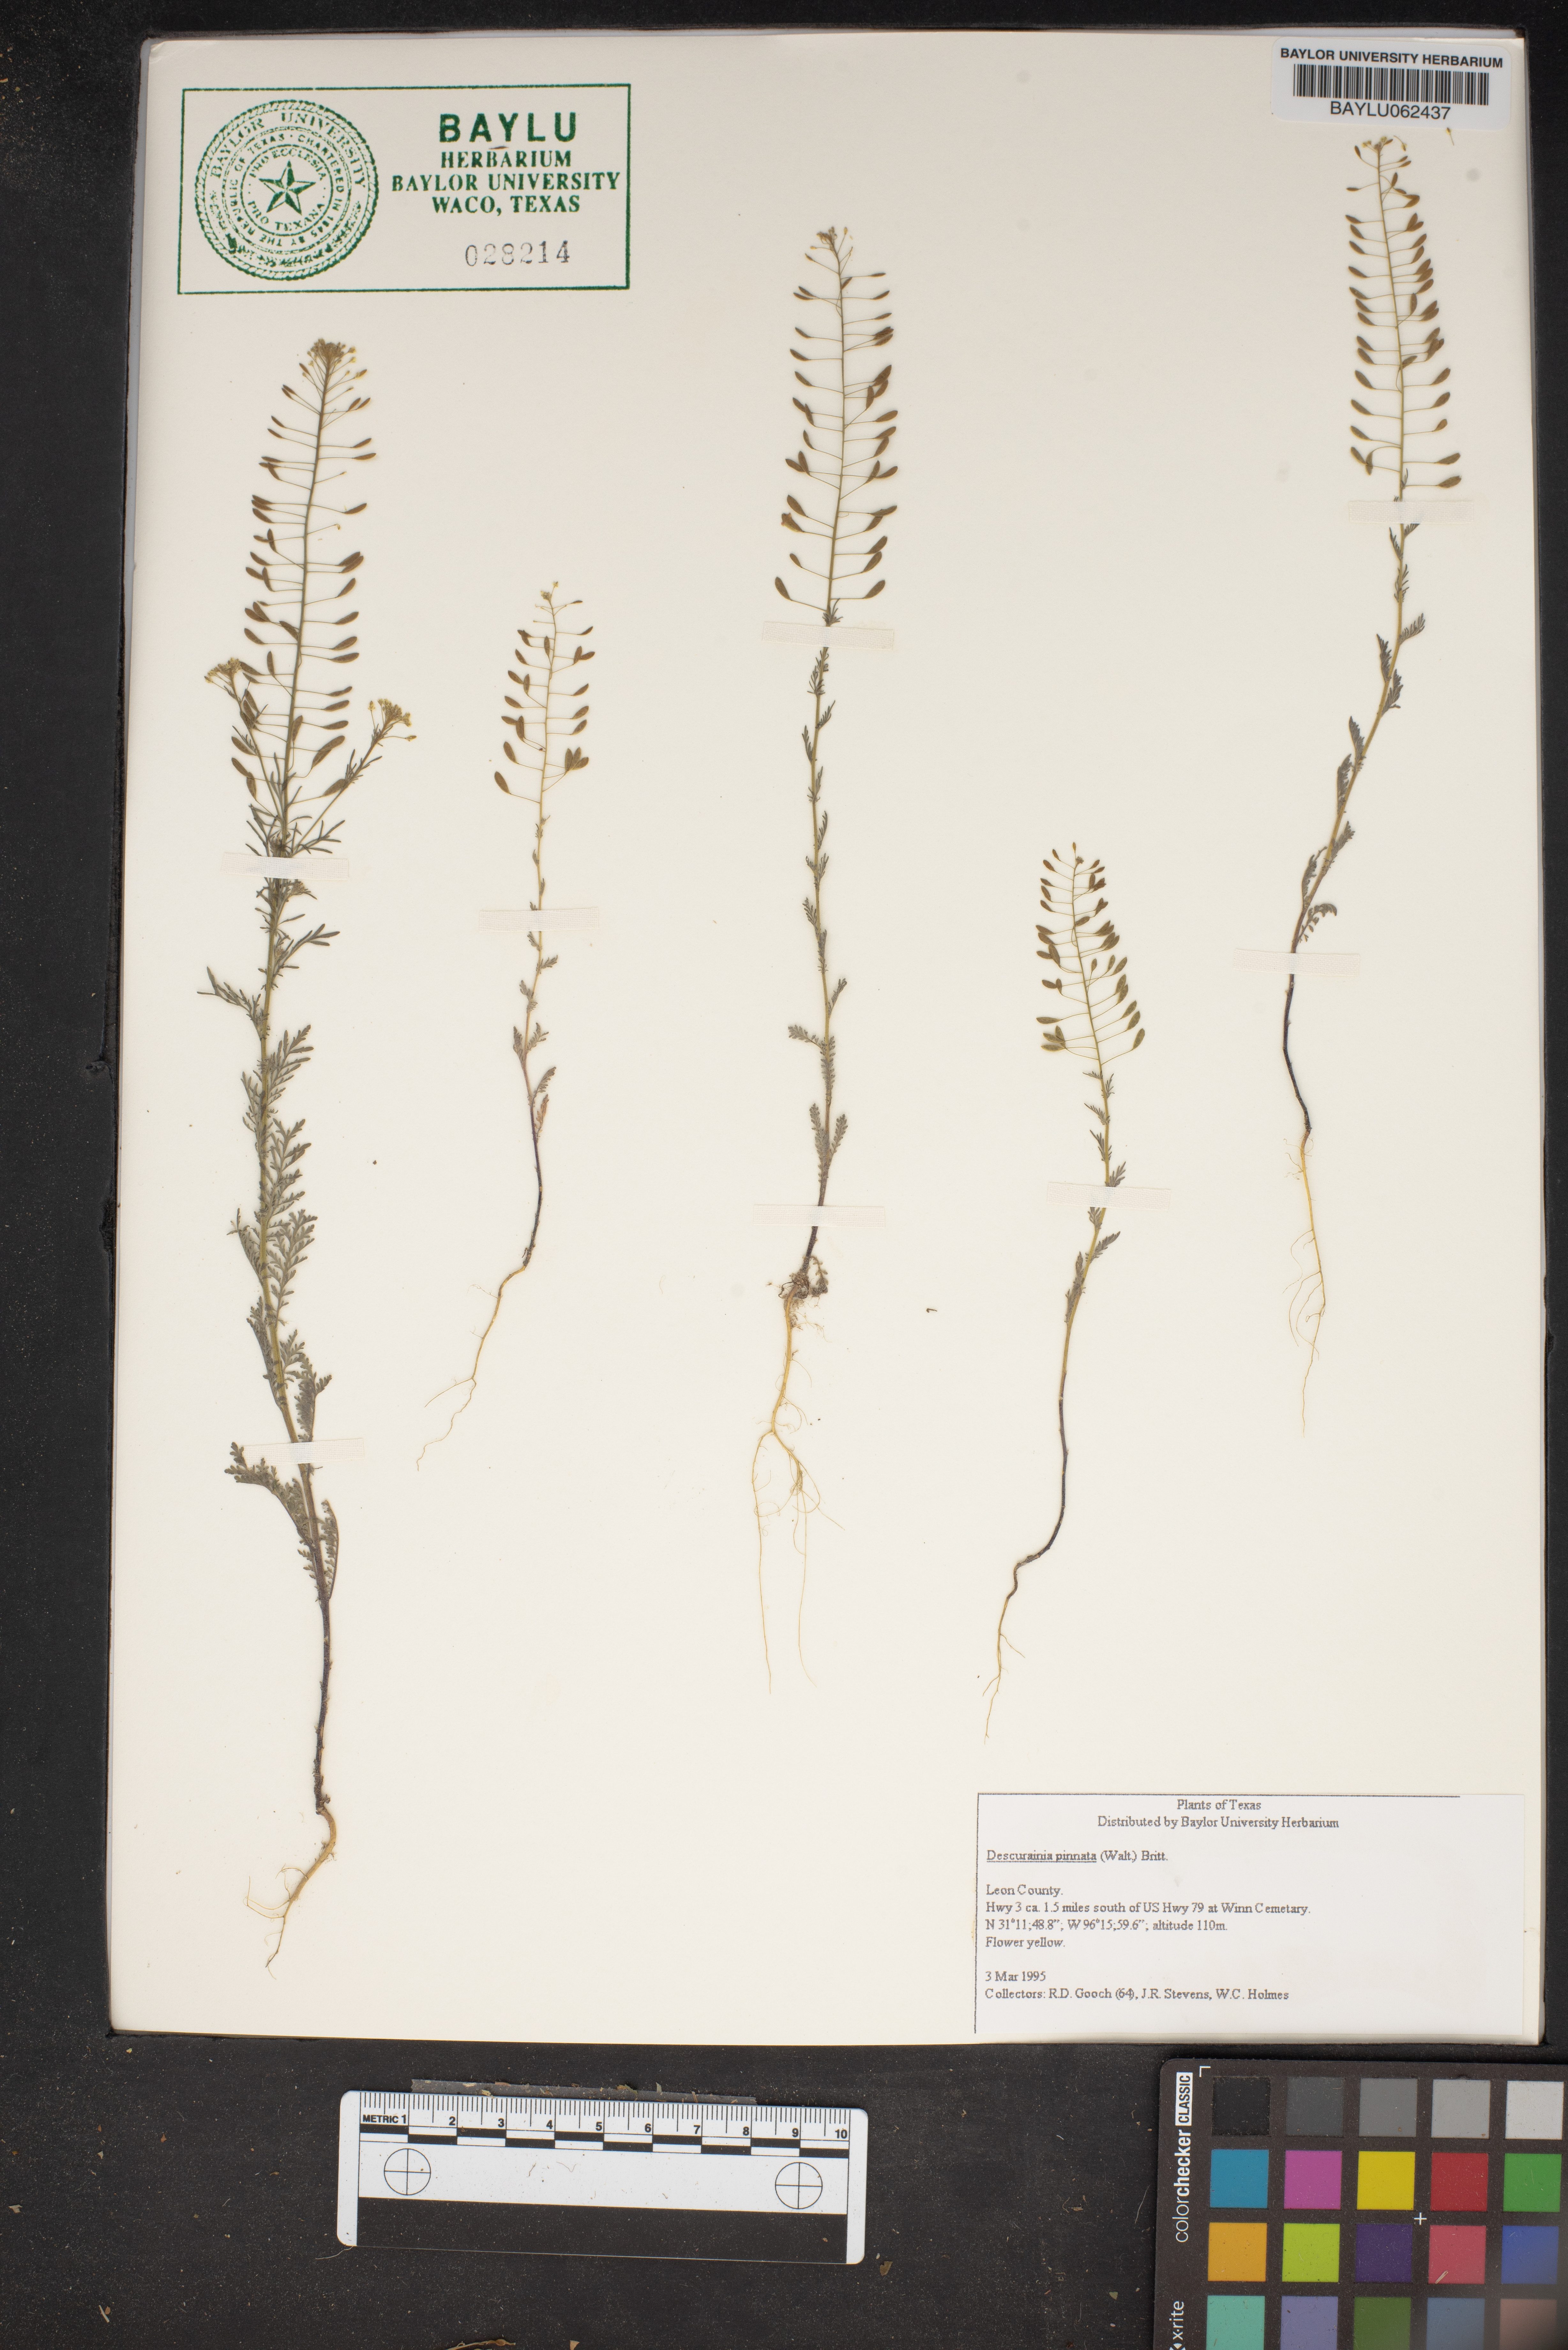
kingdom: Plantae
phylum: Tracheophyta
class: Magnoliopsida
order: Brassicales
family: Brassicaceae
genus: Descurainia
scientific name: Descurainia pinnata
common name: Western tansy mustard
